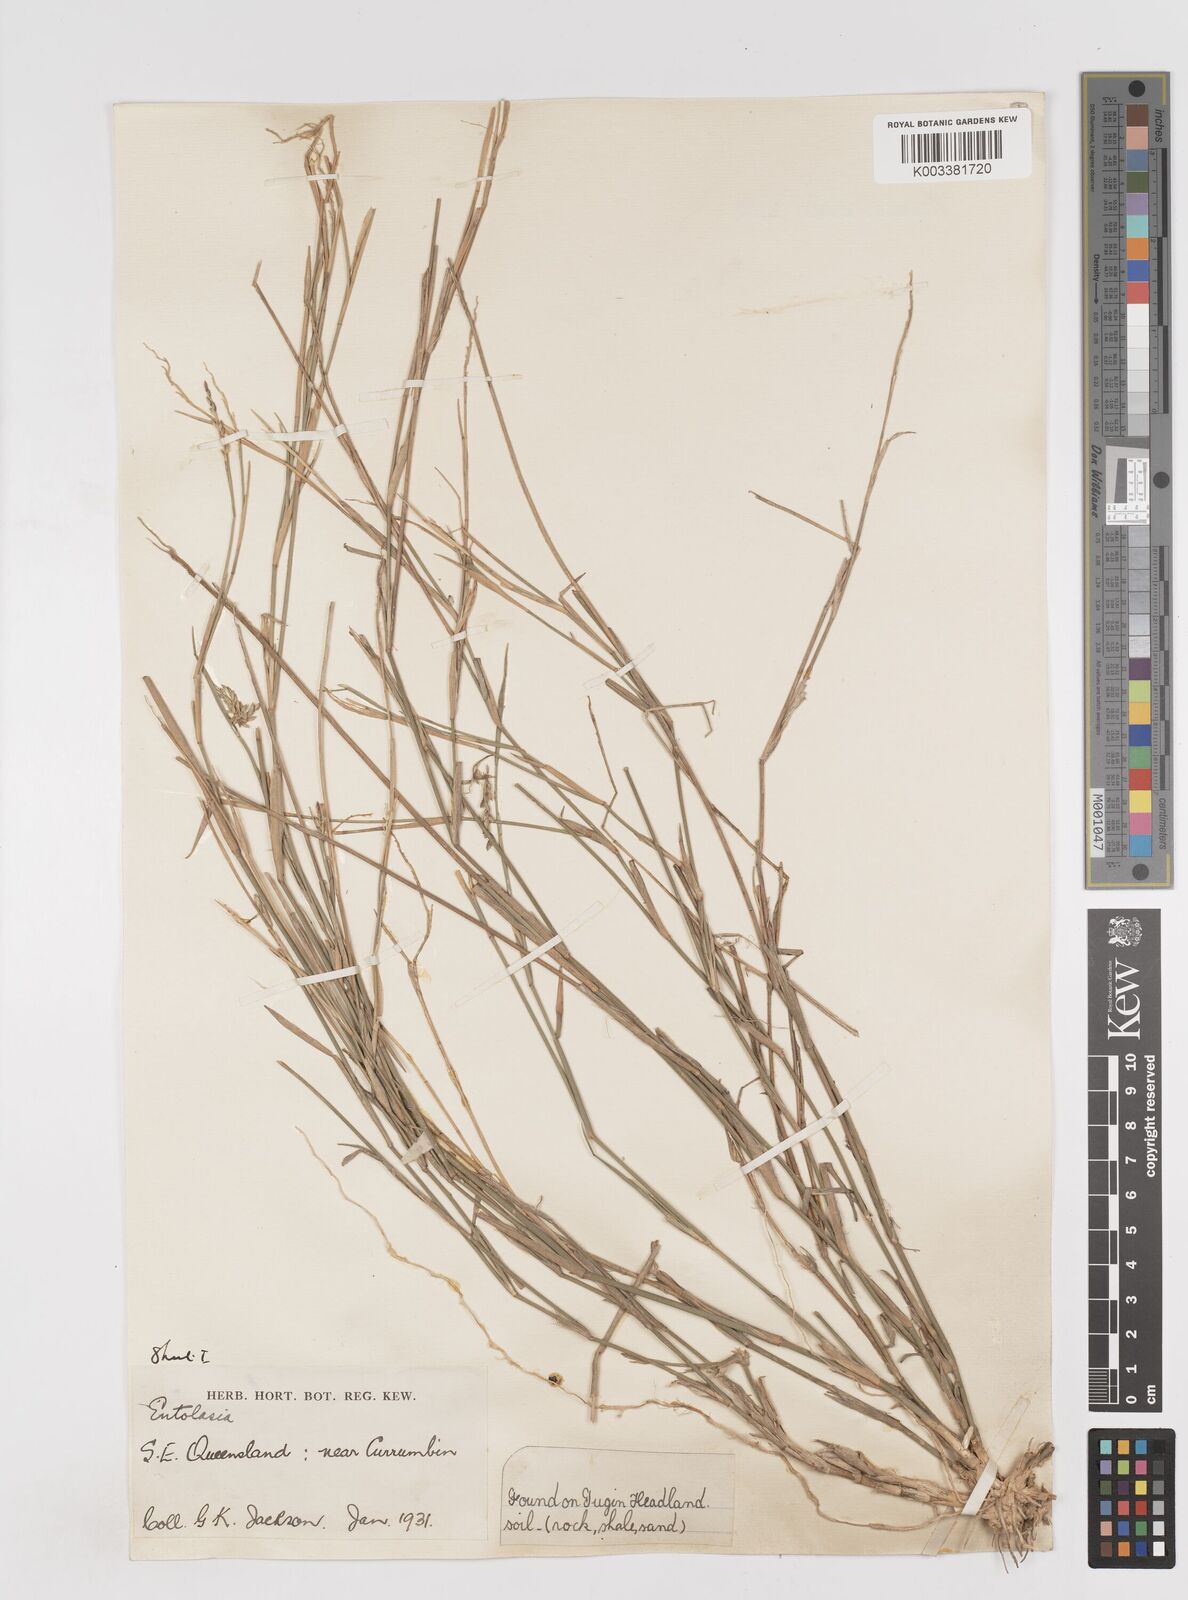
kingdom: Plantae
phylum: Tracheophyta
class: Liliopsida
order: Poales
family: Poaceae
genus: Entolasia
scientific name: Entolasia stricta
